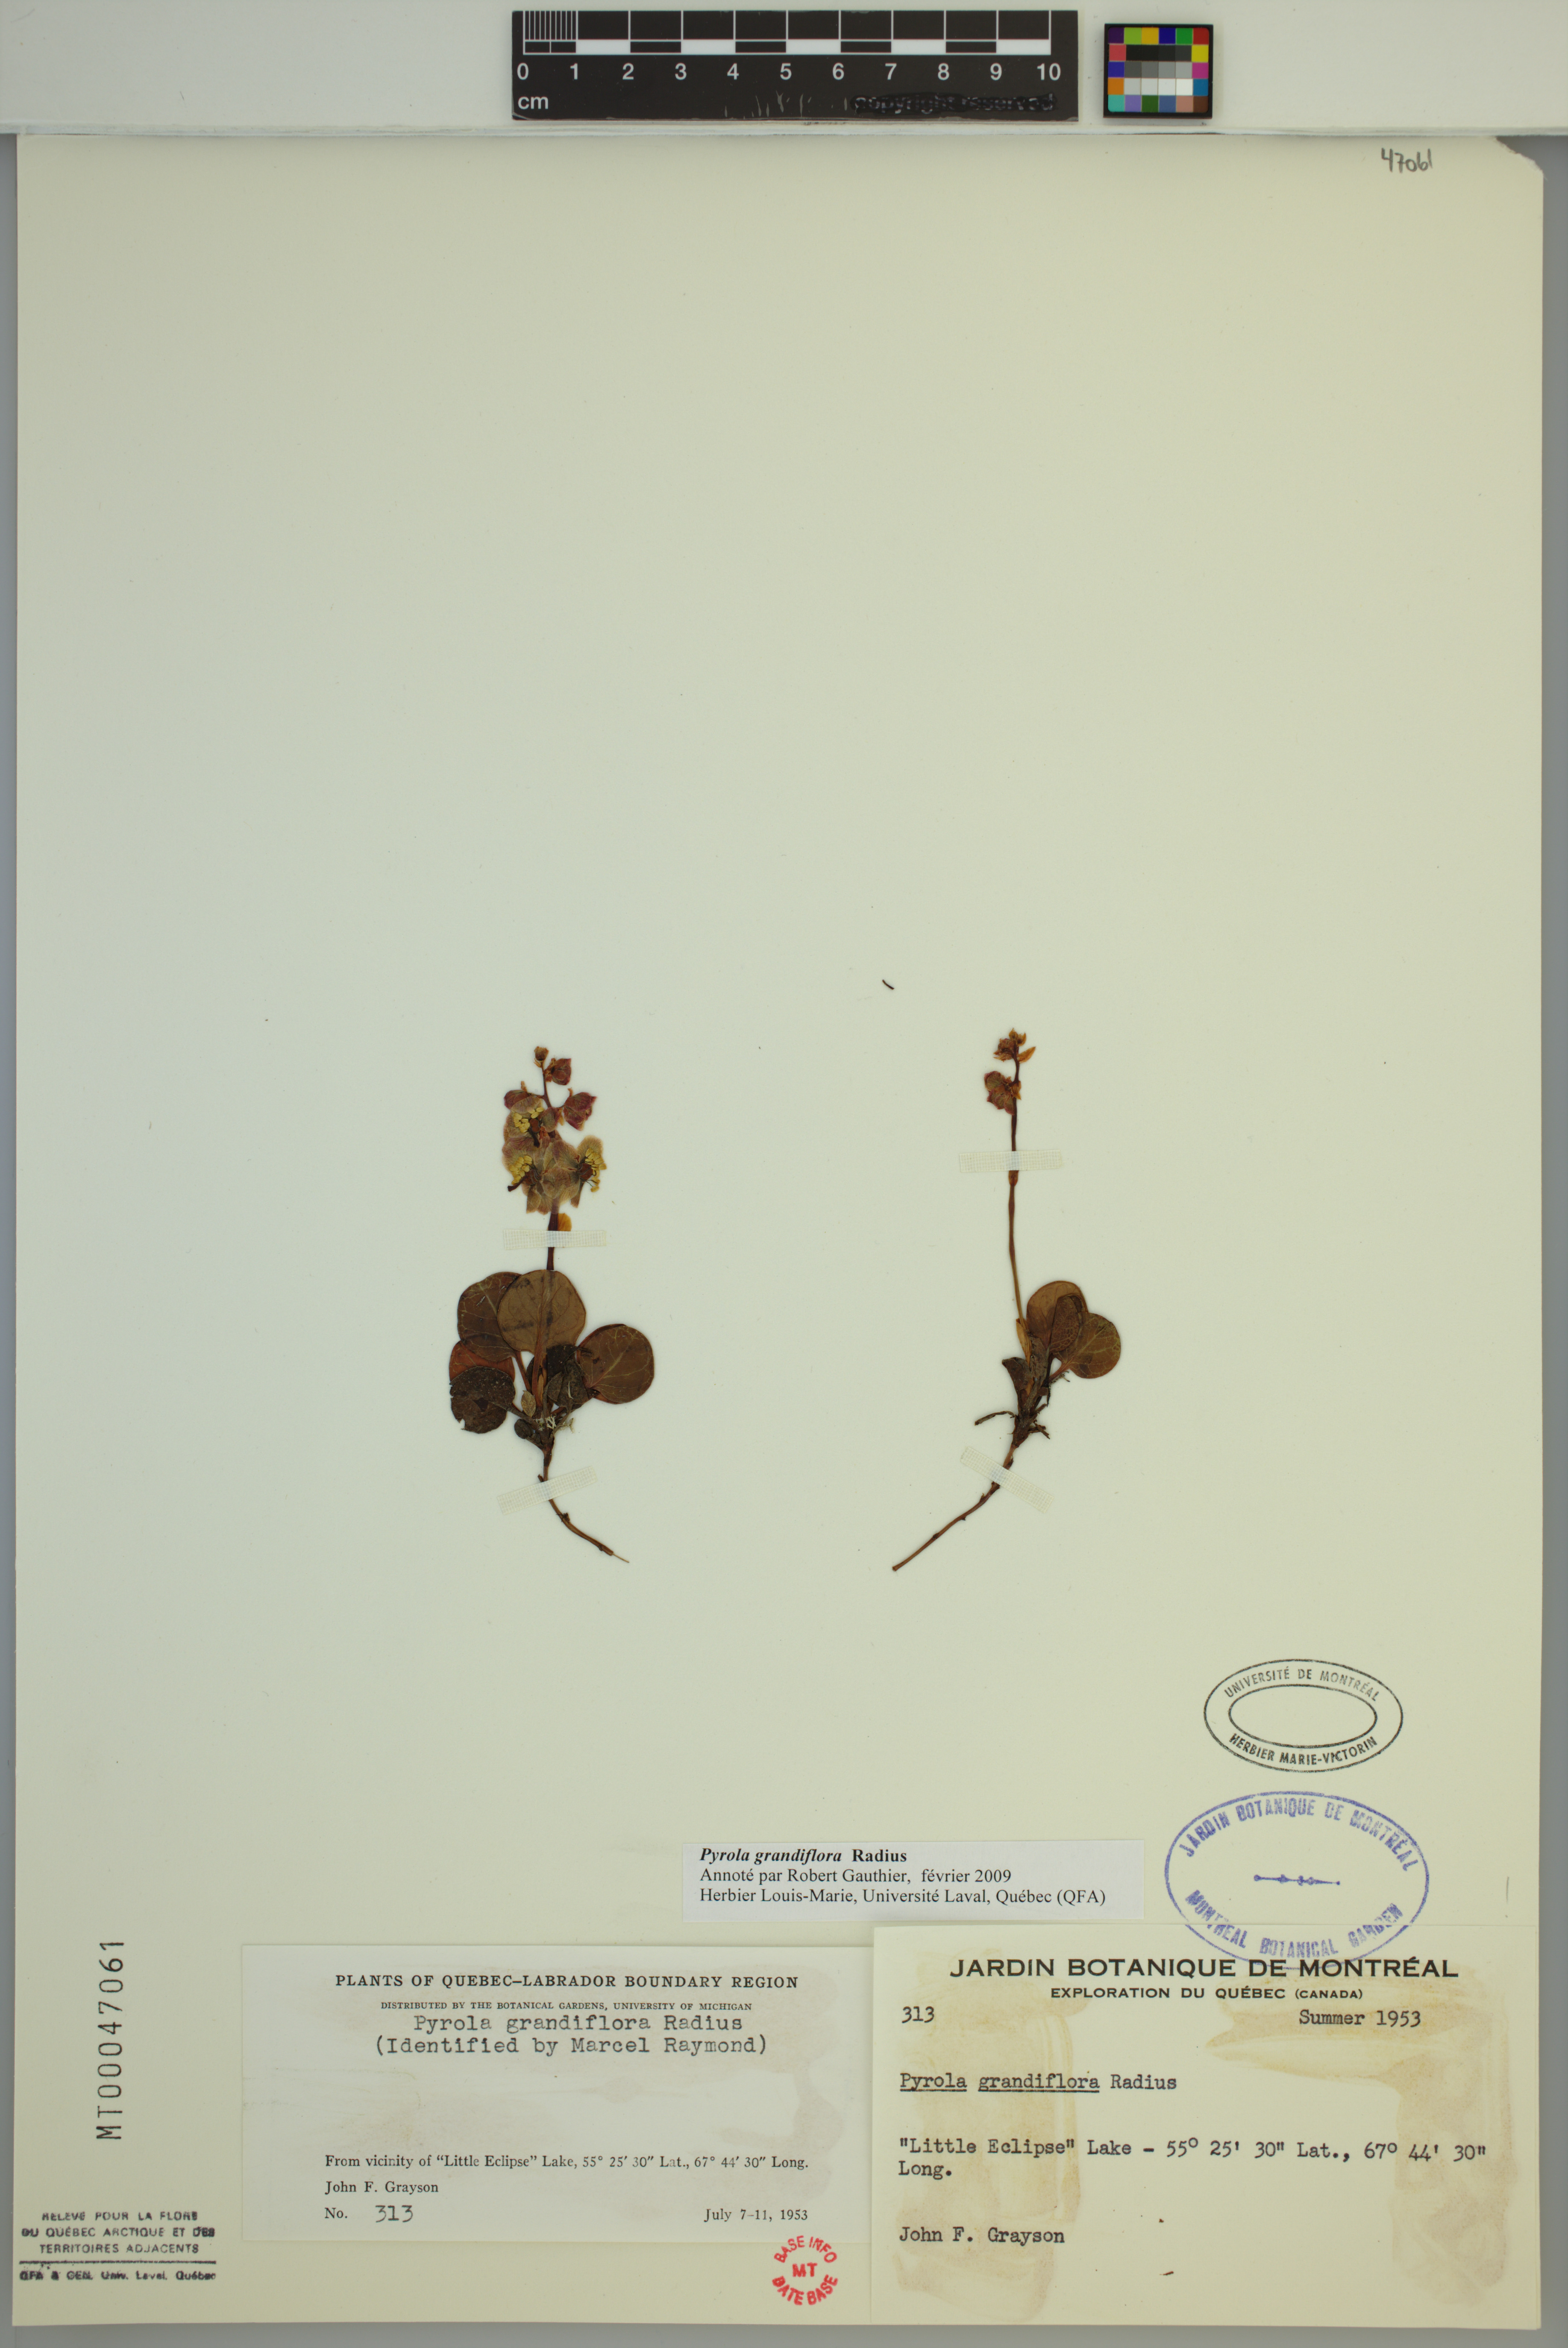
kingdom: Plantae
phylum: Tracheophyta
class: Magnoliopsida
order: Ericales
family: Ericaceae
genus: Pyrola
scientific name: Pyrola grandiflora
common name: Arctic pyrola
